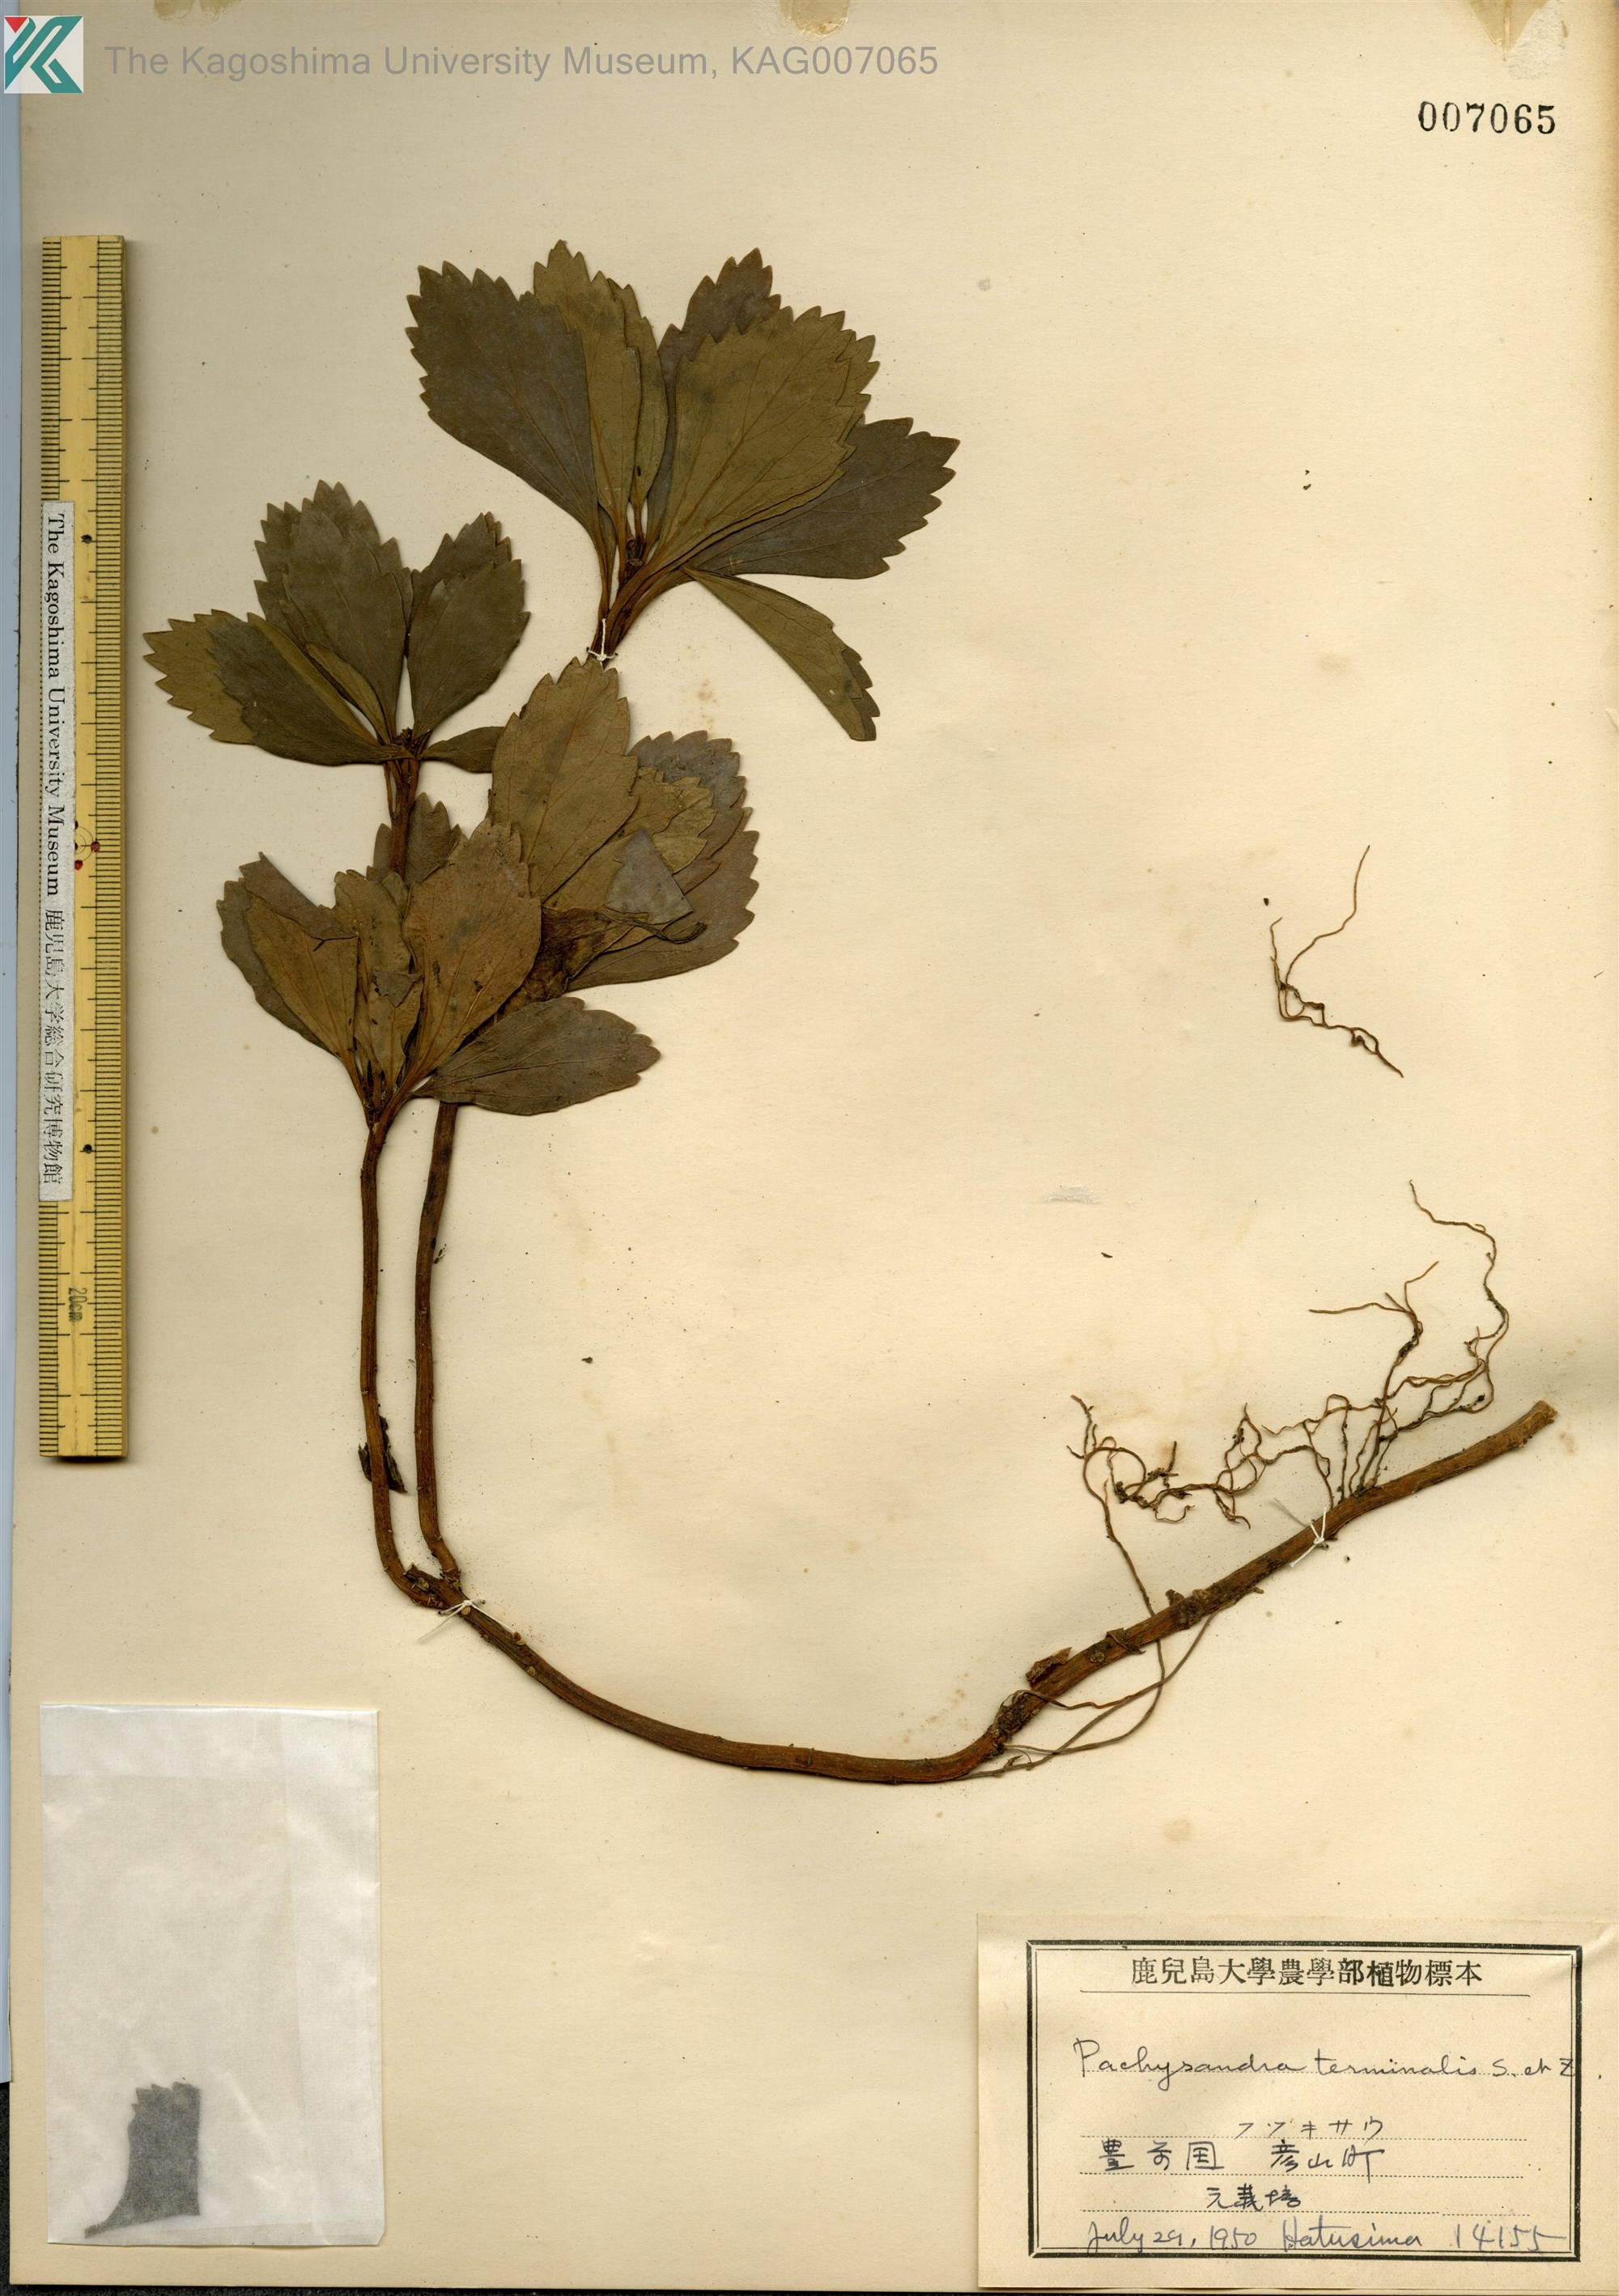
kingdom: Plantae
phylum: Tracheophyta
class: Magnoliopsida
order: Buxales
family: Buxaceae
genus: Pachysandra
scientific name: Pachysandra terminalis
